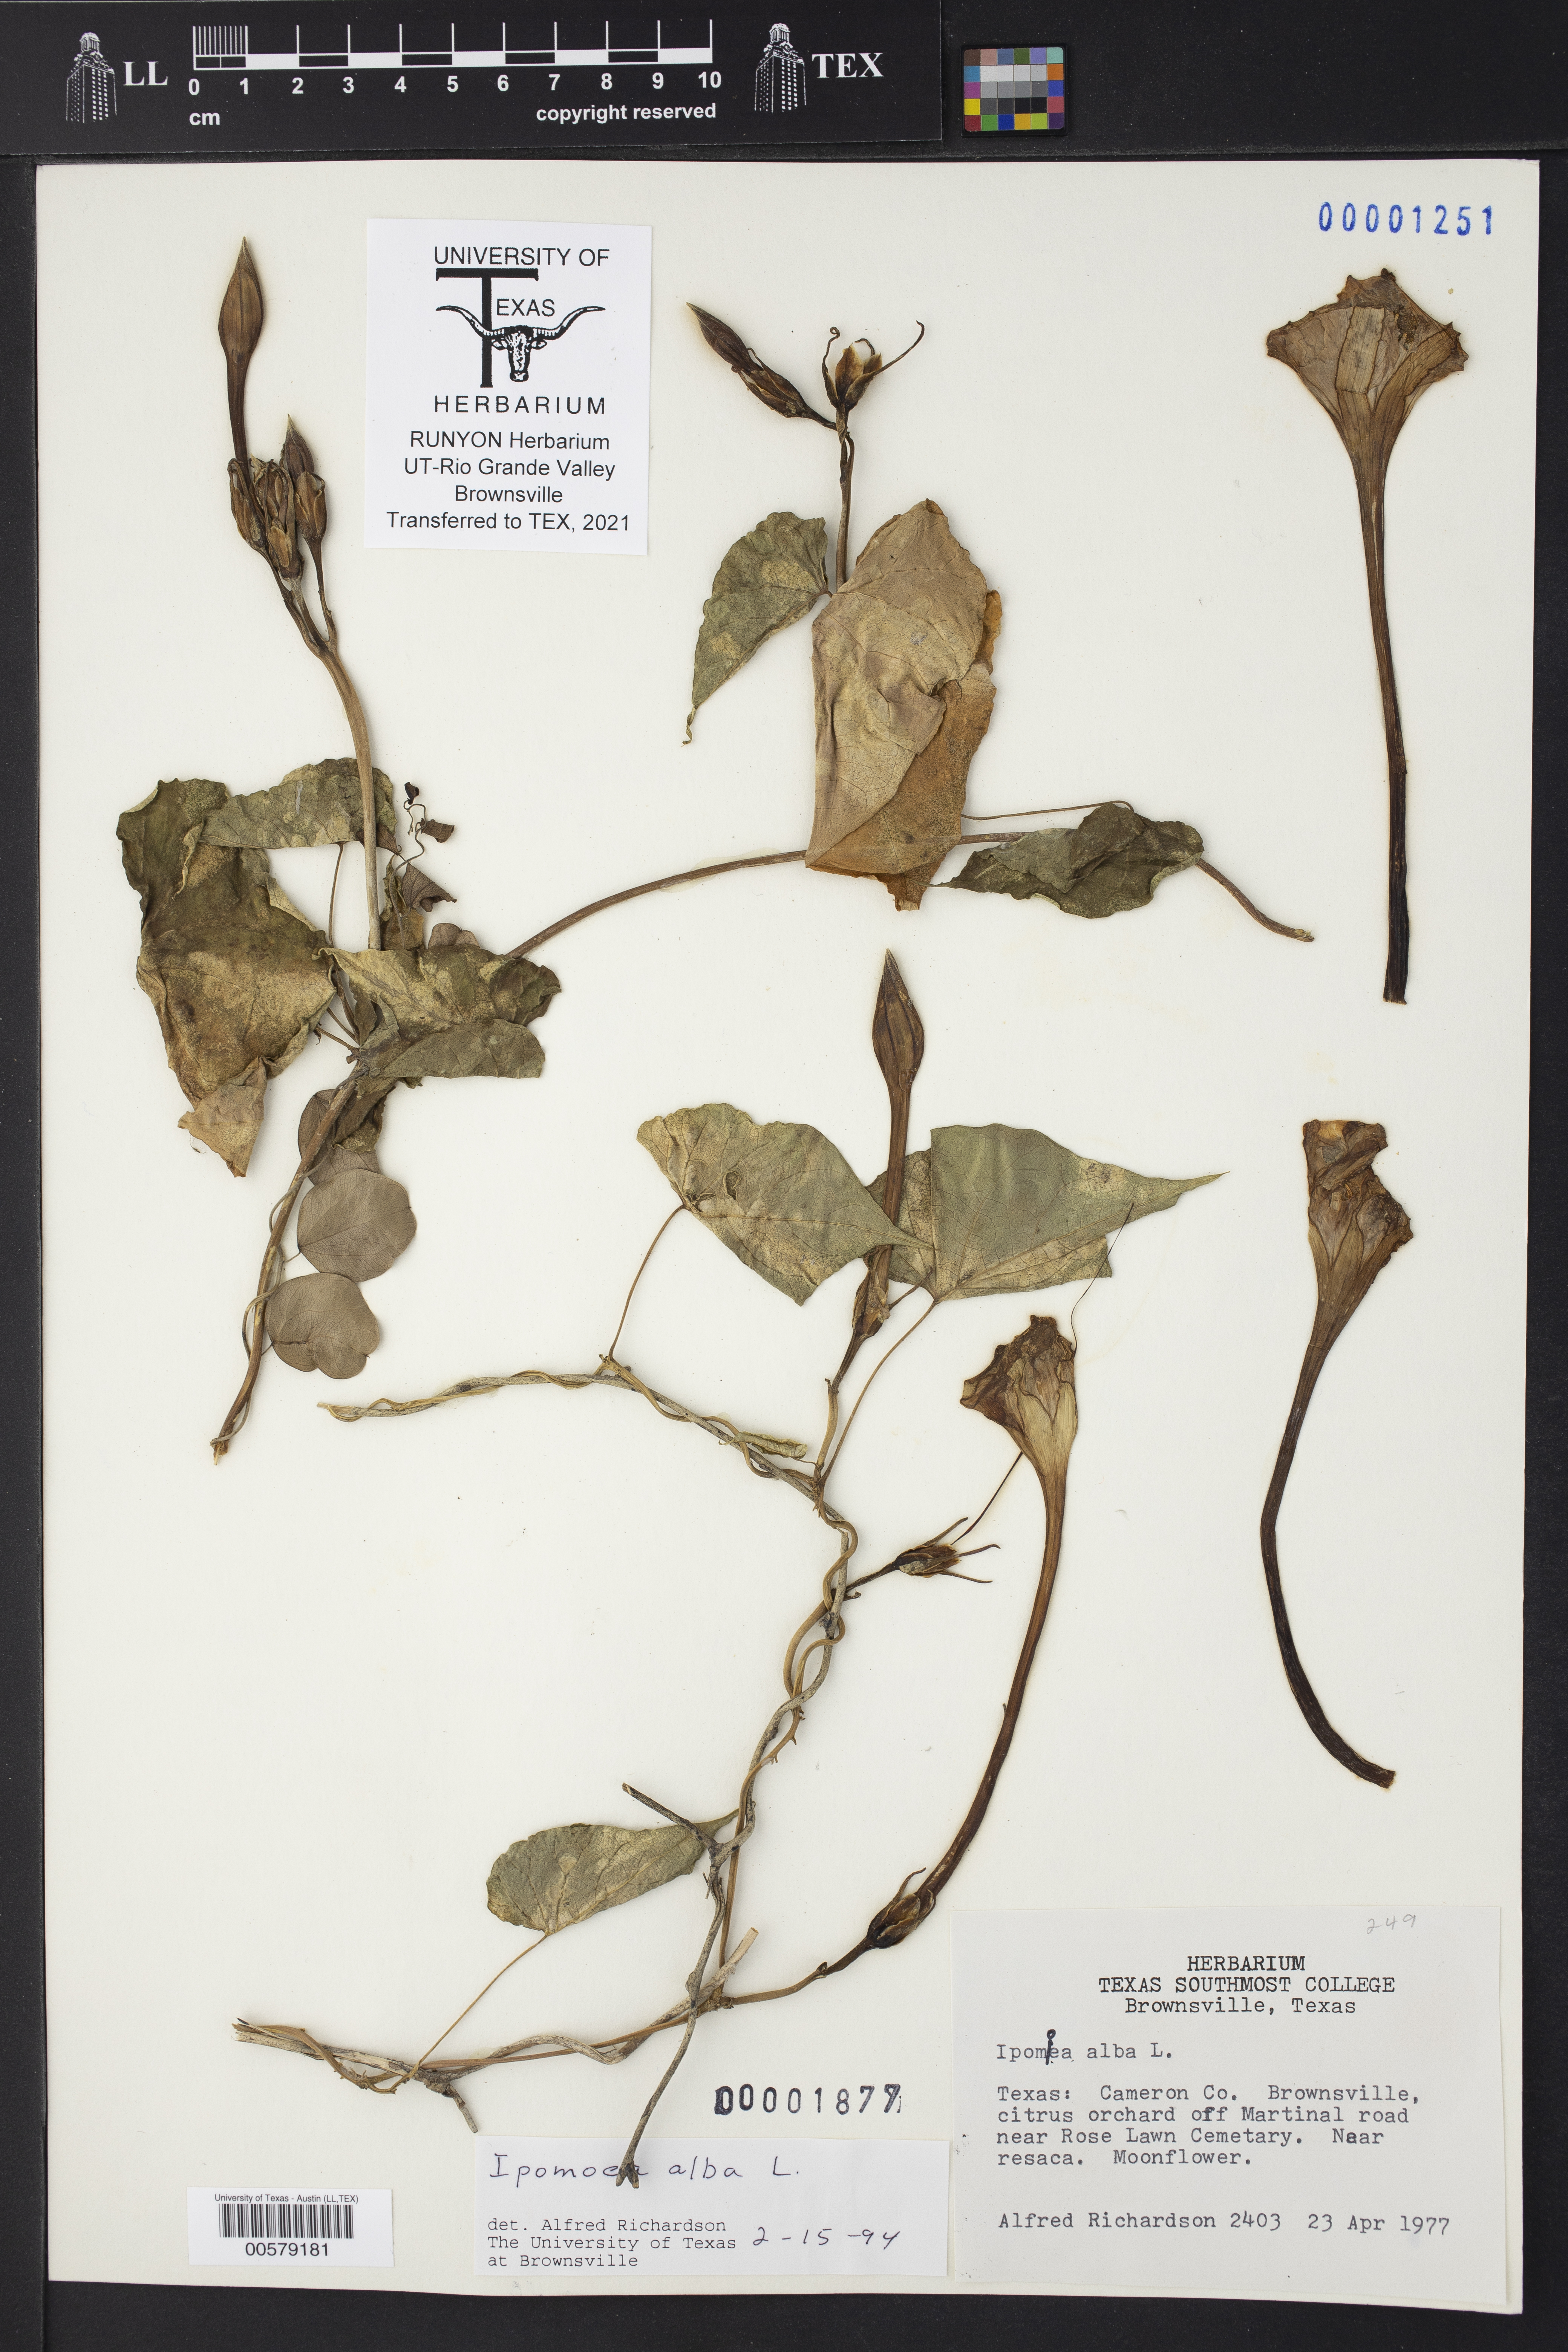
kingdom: Plantae
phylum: Tracheophyta
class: Magnoliopsida
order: Solanales
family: Convolvulaceae
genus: Ipomoea
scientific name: Ipomoea alba
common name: Moonflower
